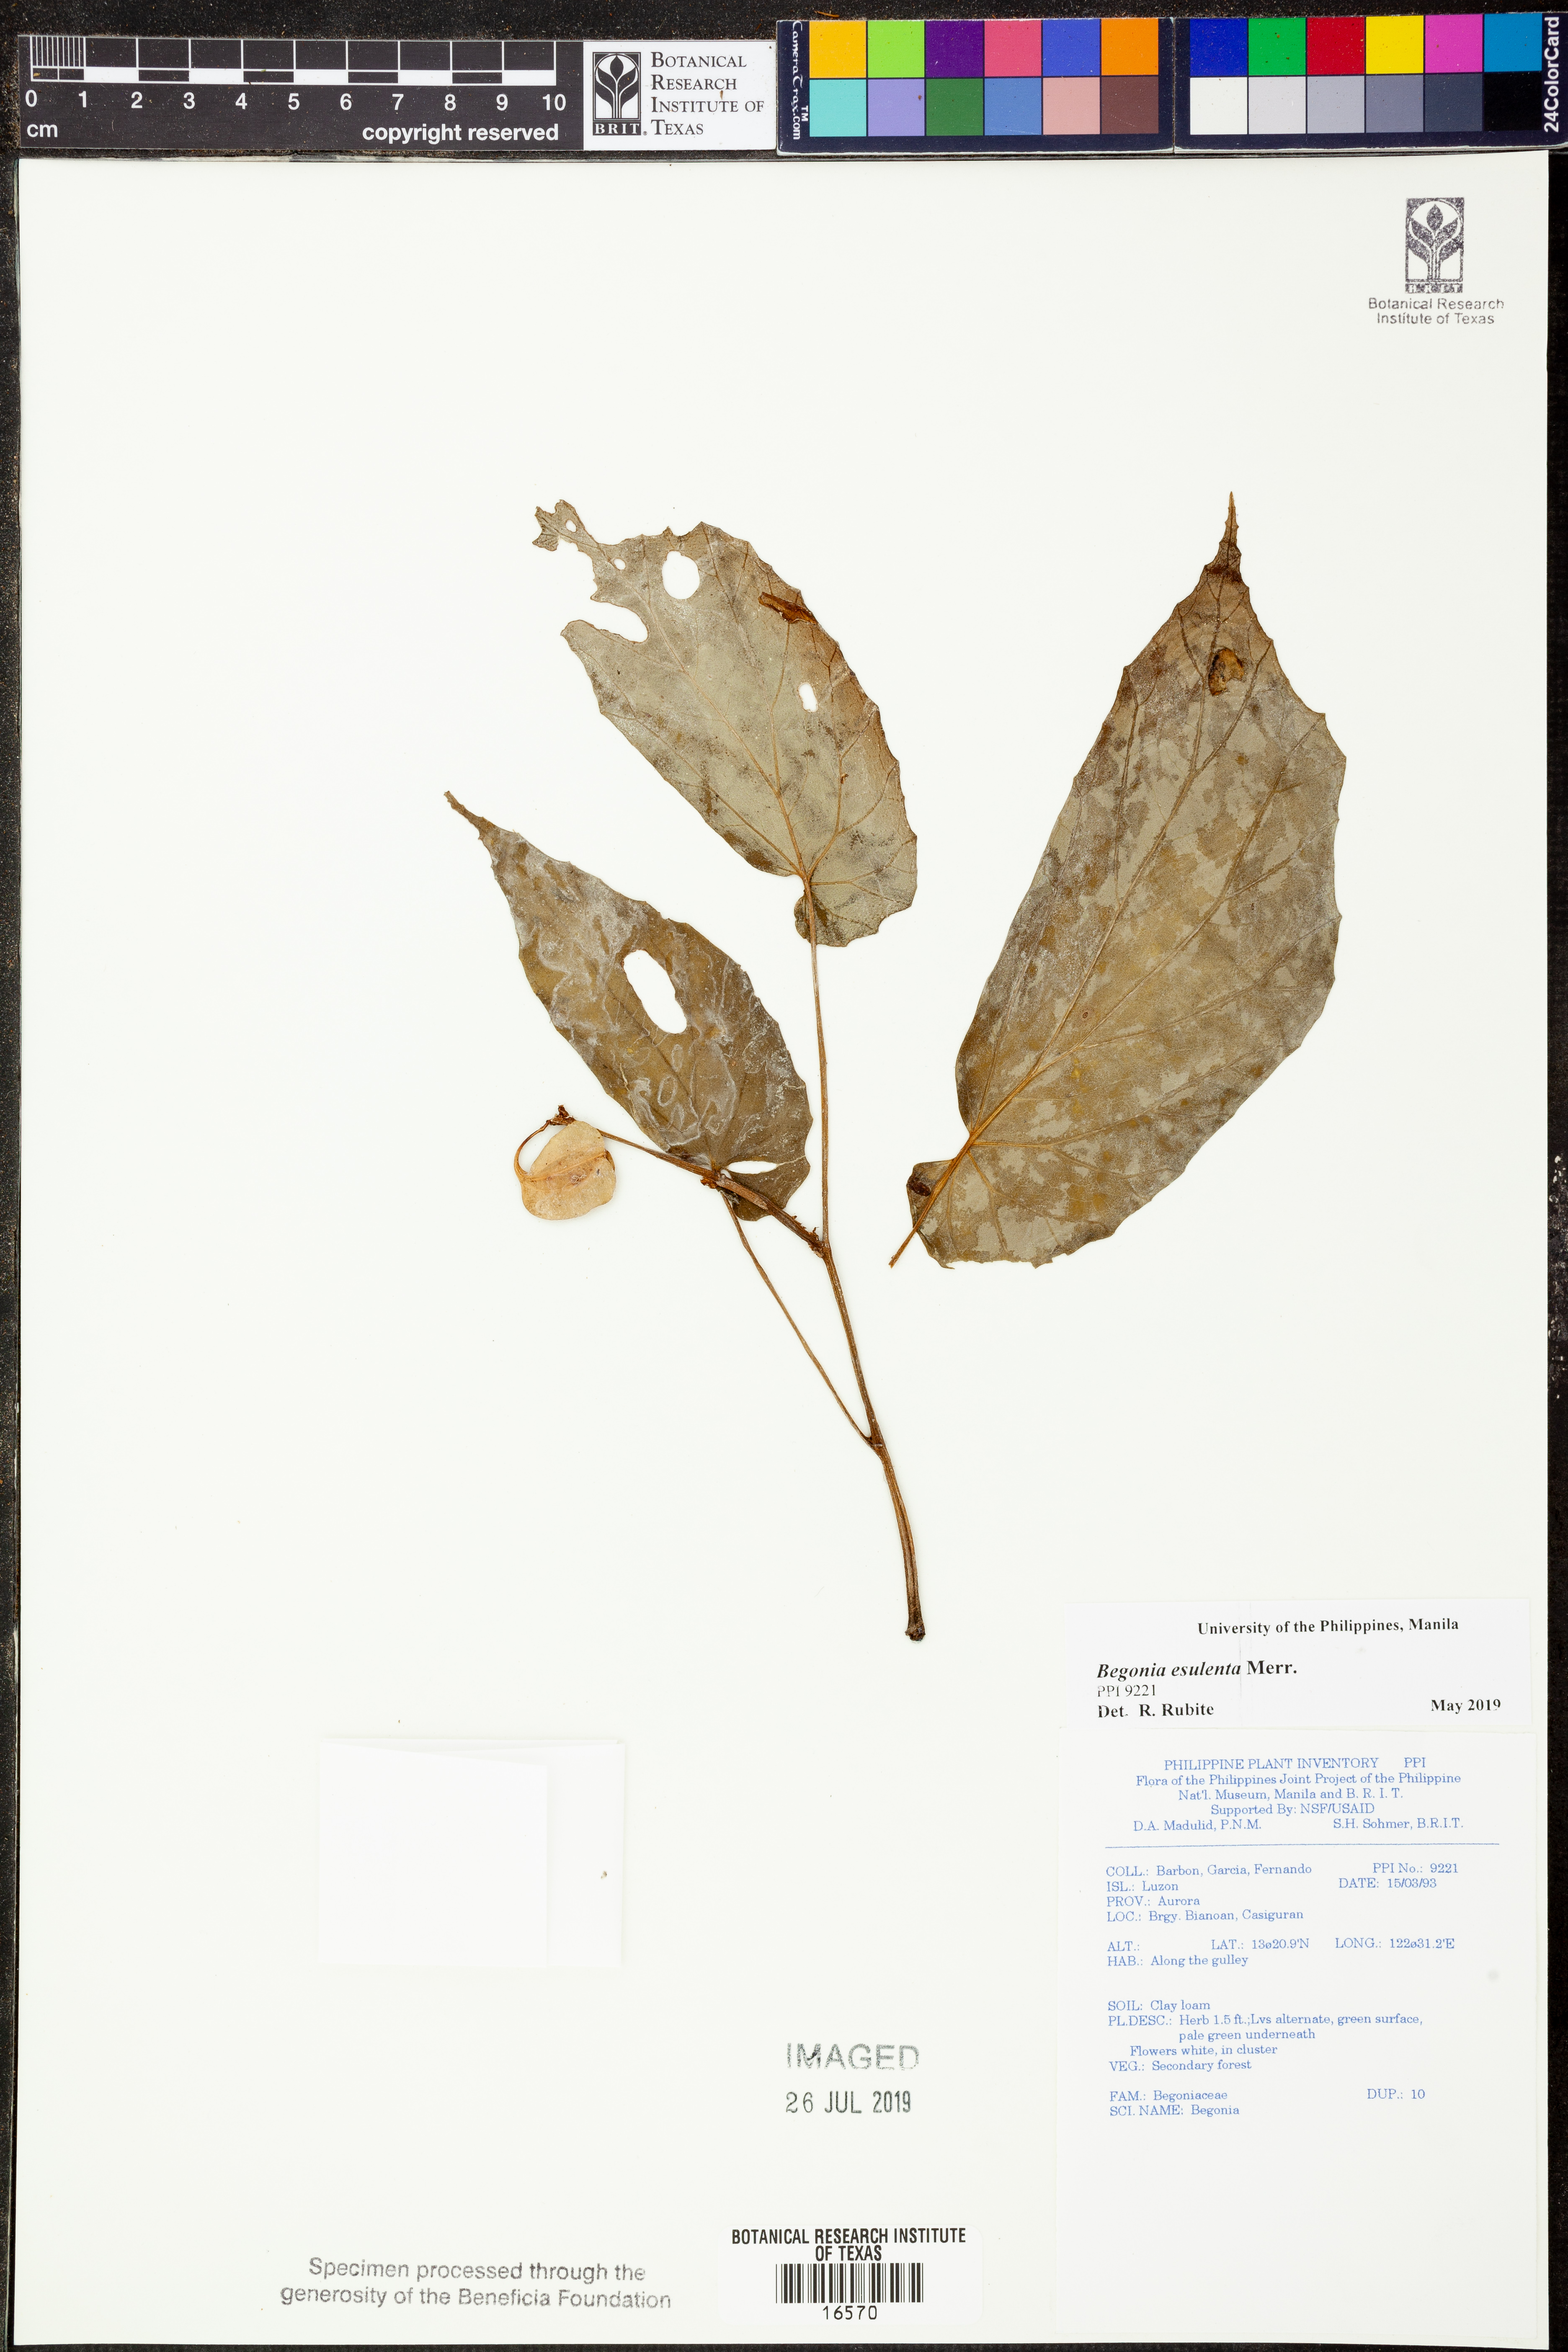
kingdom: Plantae
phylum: Tracheophyta
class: Magnoliopsida
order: Cucurbitales
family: Begoniaceae
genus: Begonia
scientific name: Begonia esculenta
